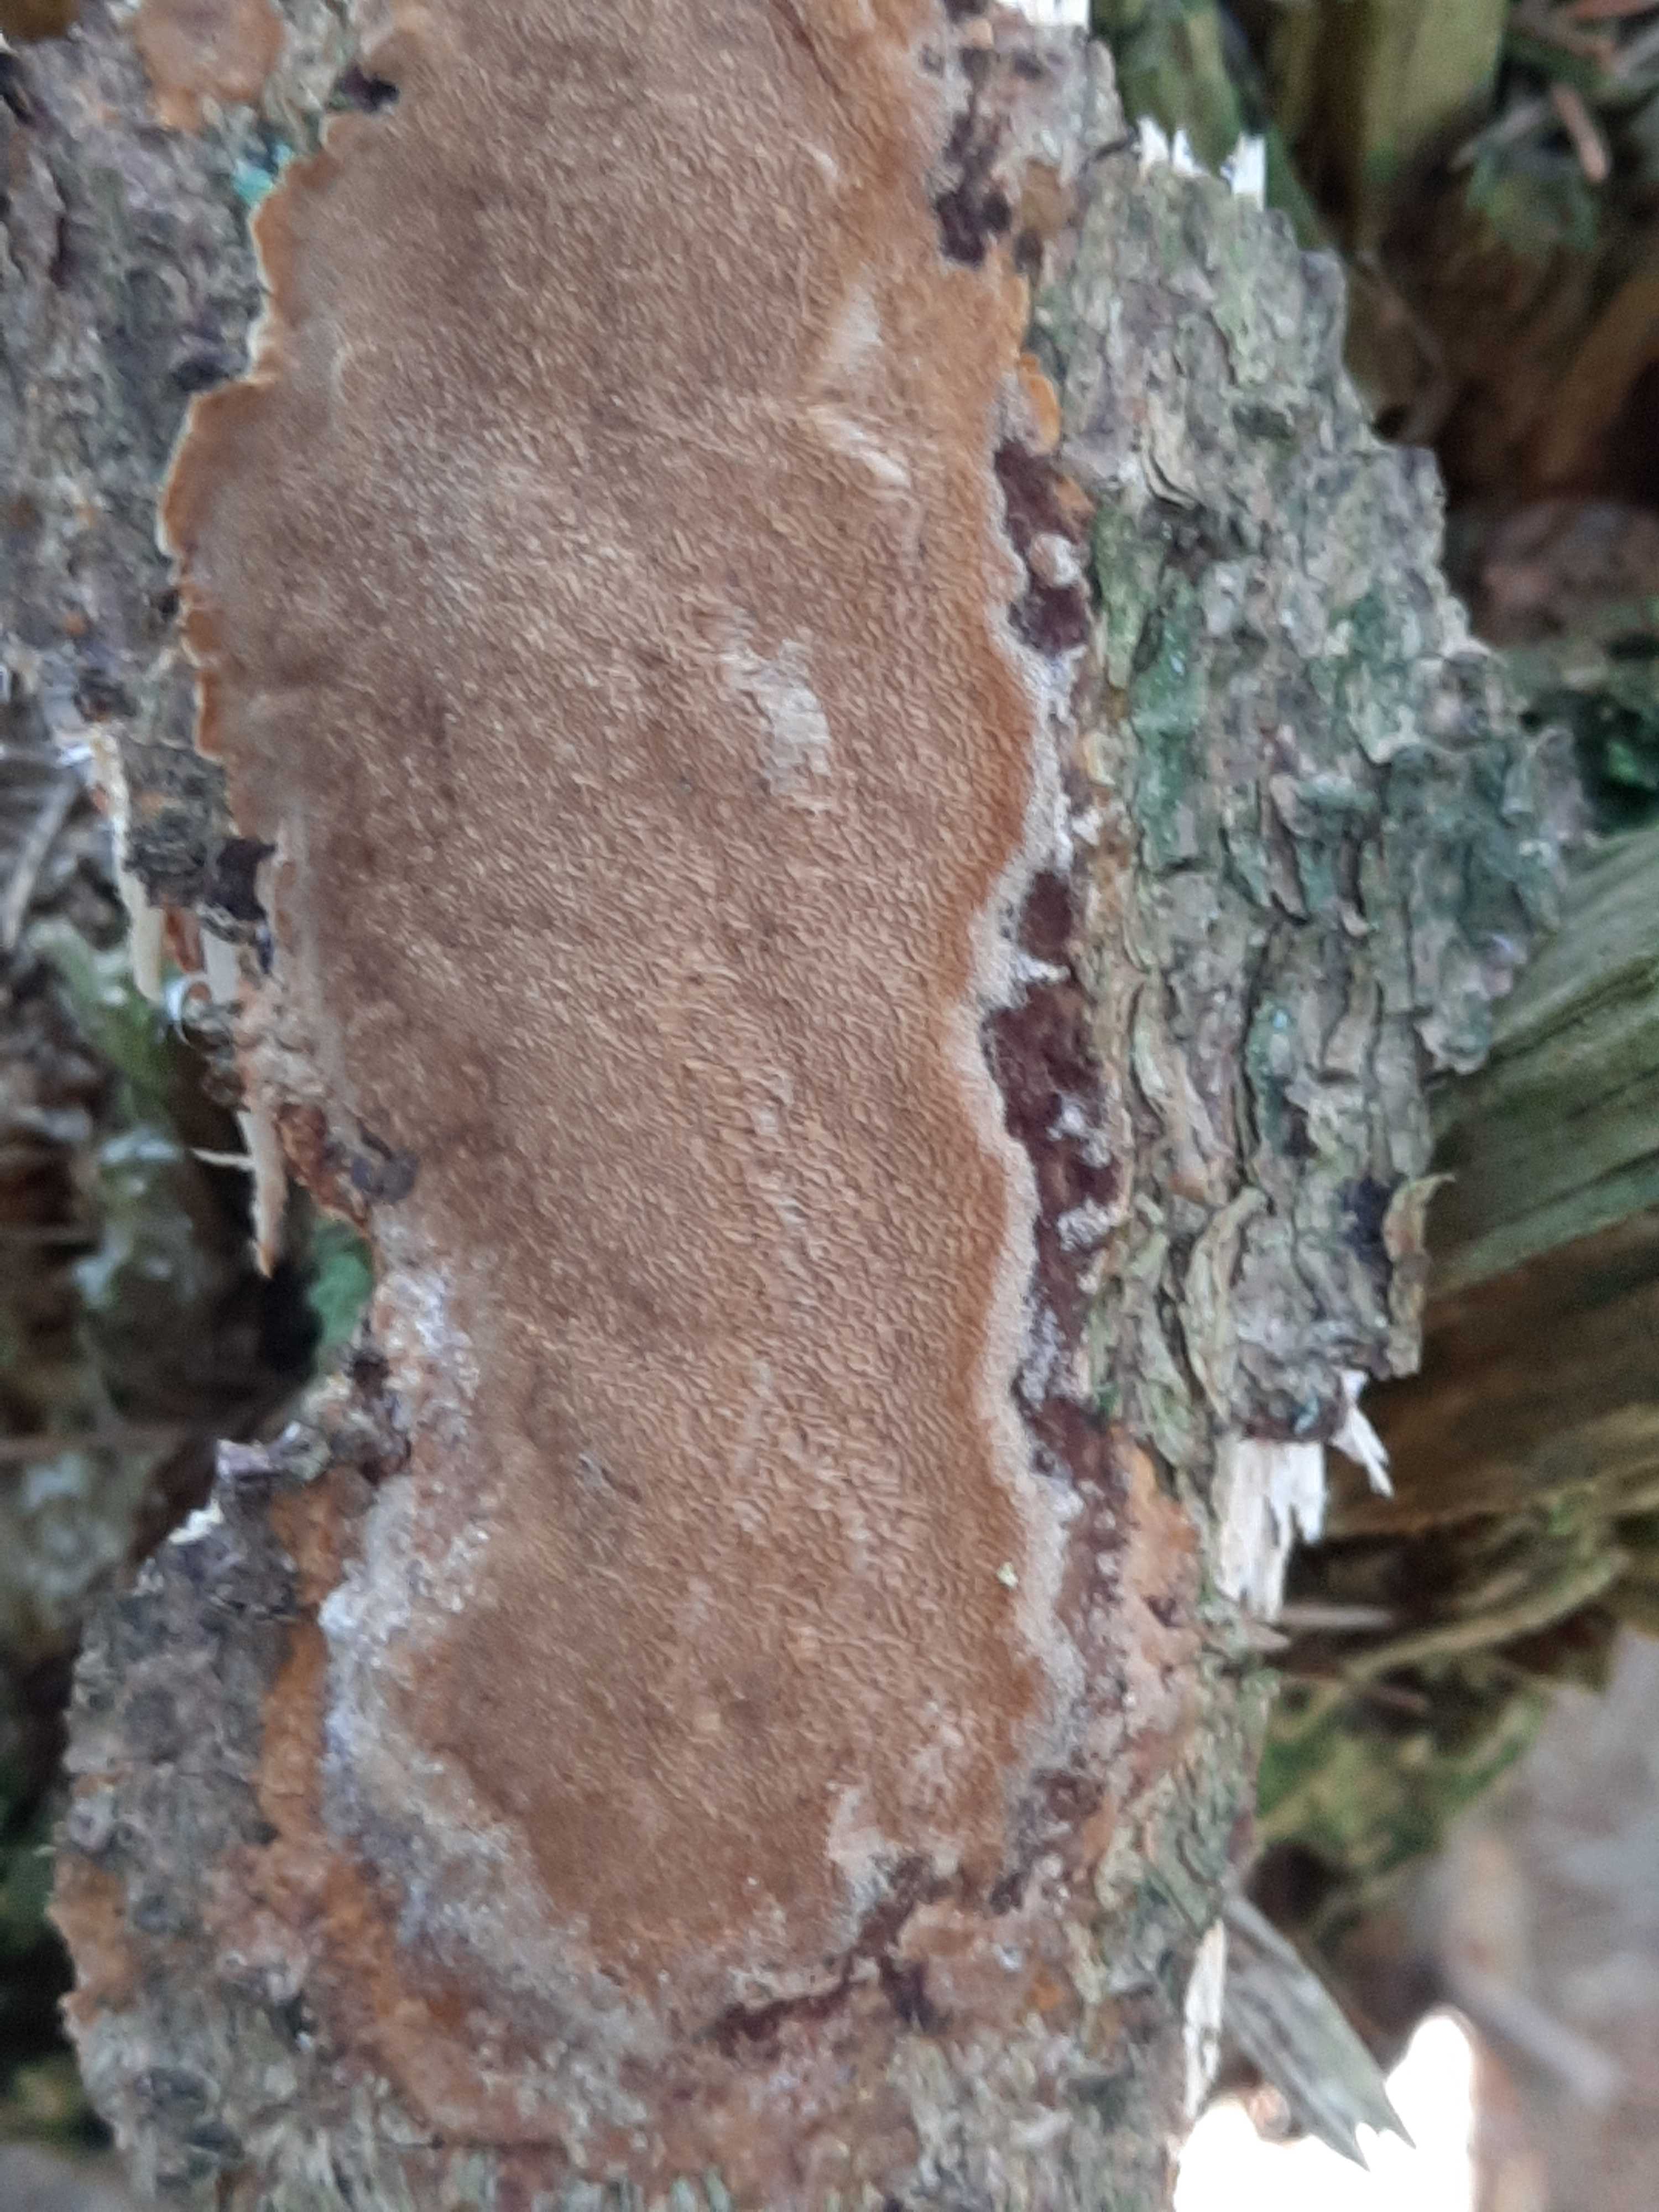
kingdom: Fungi
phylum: Basidiomycota
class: Agaricomycetes
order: Hymenochaetales
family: Hymenochaetaceae
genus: Fuscoporia
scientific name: Fuscoporia ferrea
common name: skorpe-ildporesvamp
